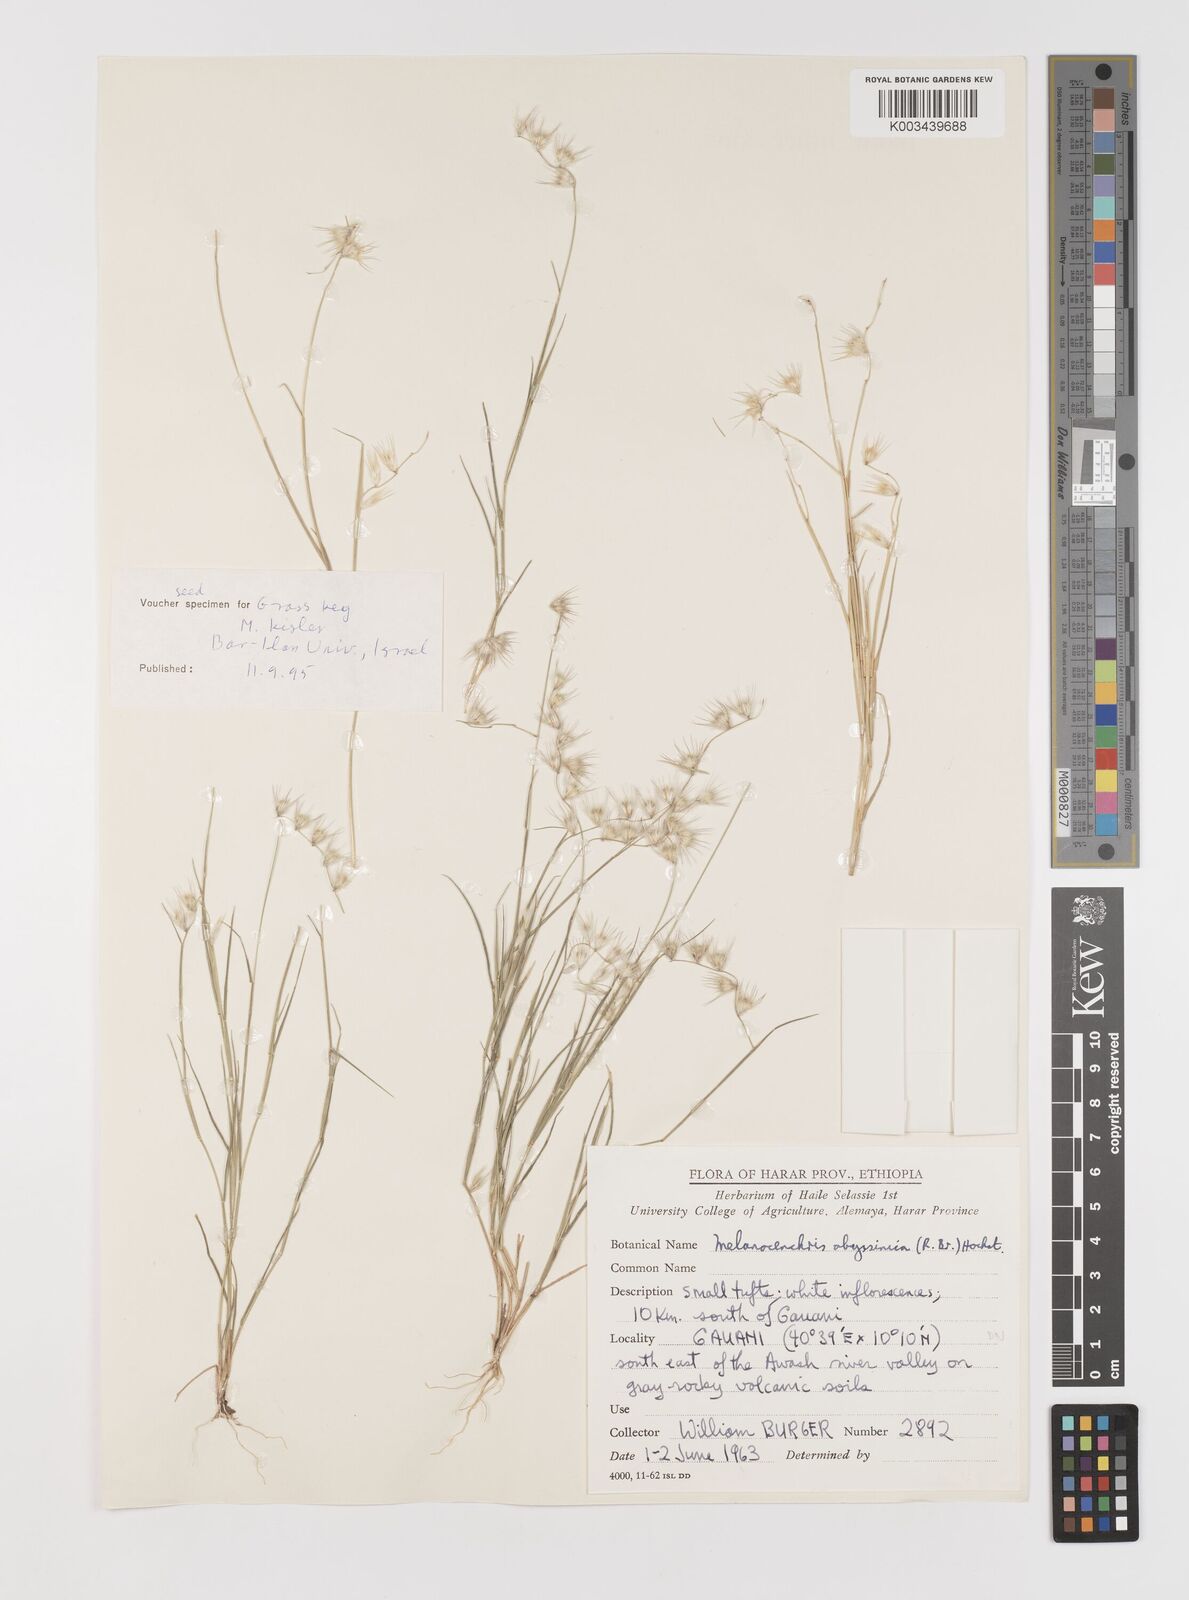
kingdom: Plantae
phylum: Tracheophyta
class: Liliopsida
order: Poales
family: Poaceae
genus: Melanocenchris
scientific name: Melanocenchris abyssinica
